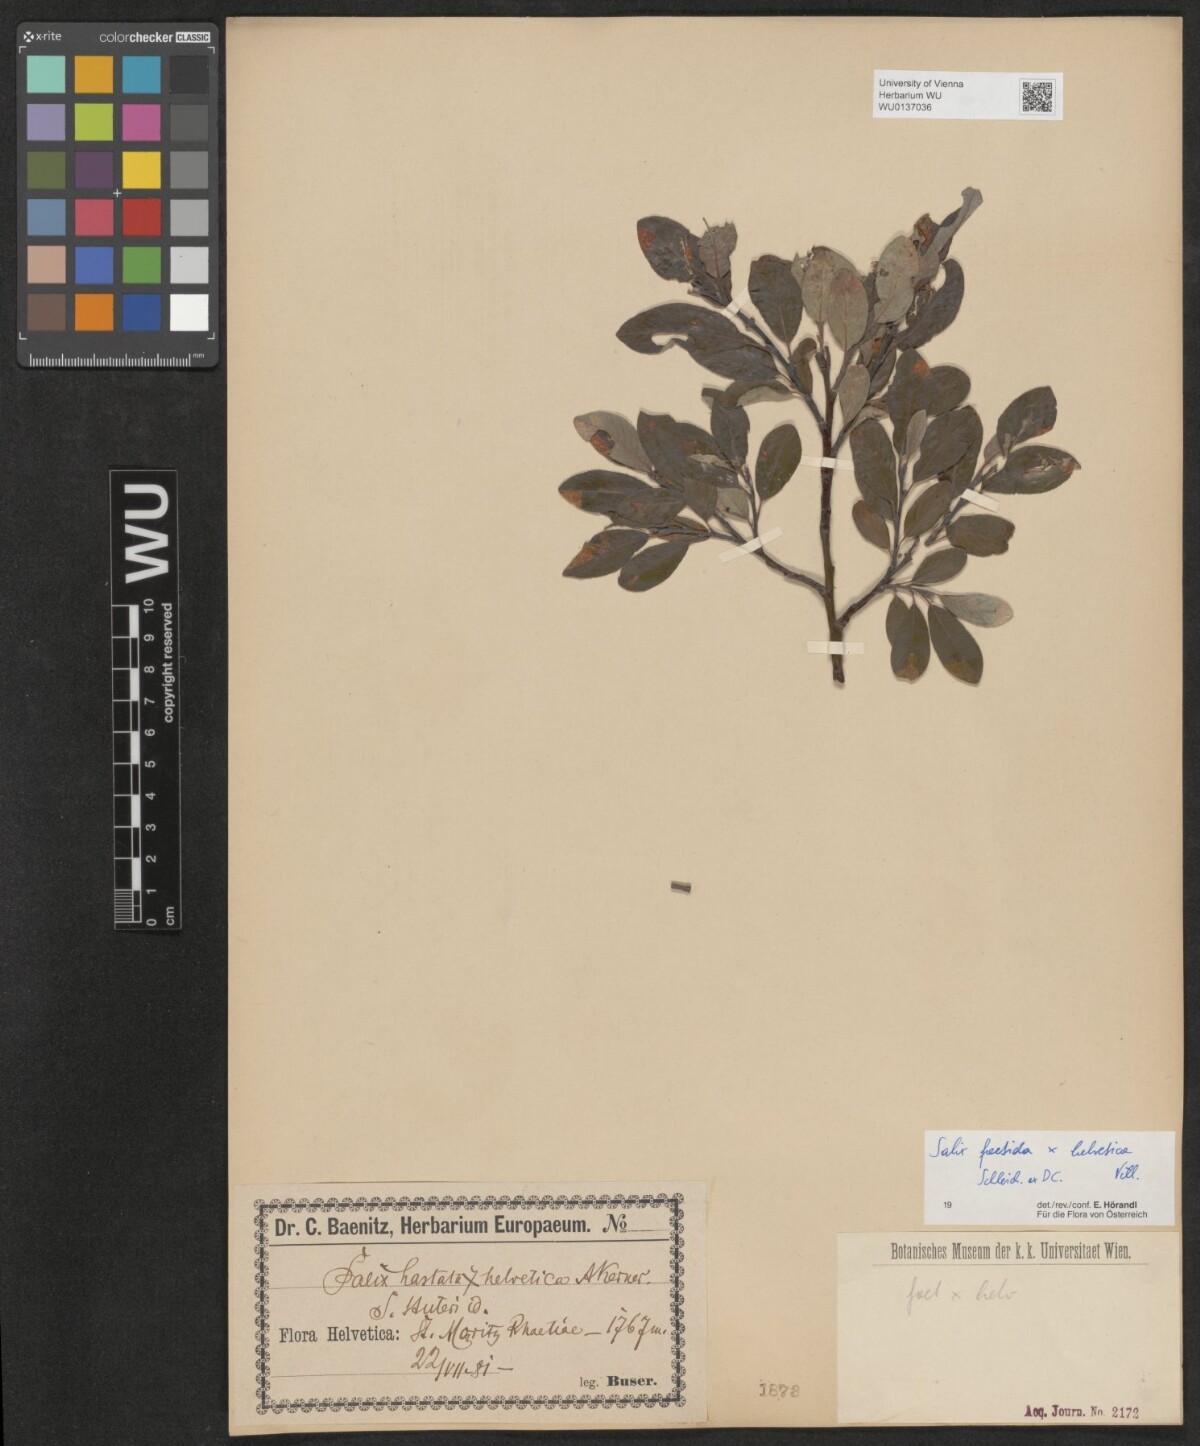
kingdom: Plantae
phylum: Tracheophyta
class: Magnoliopsida
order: Malpighiales
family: Salicaceae
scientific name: Salicaceae
